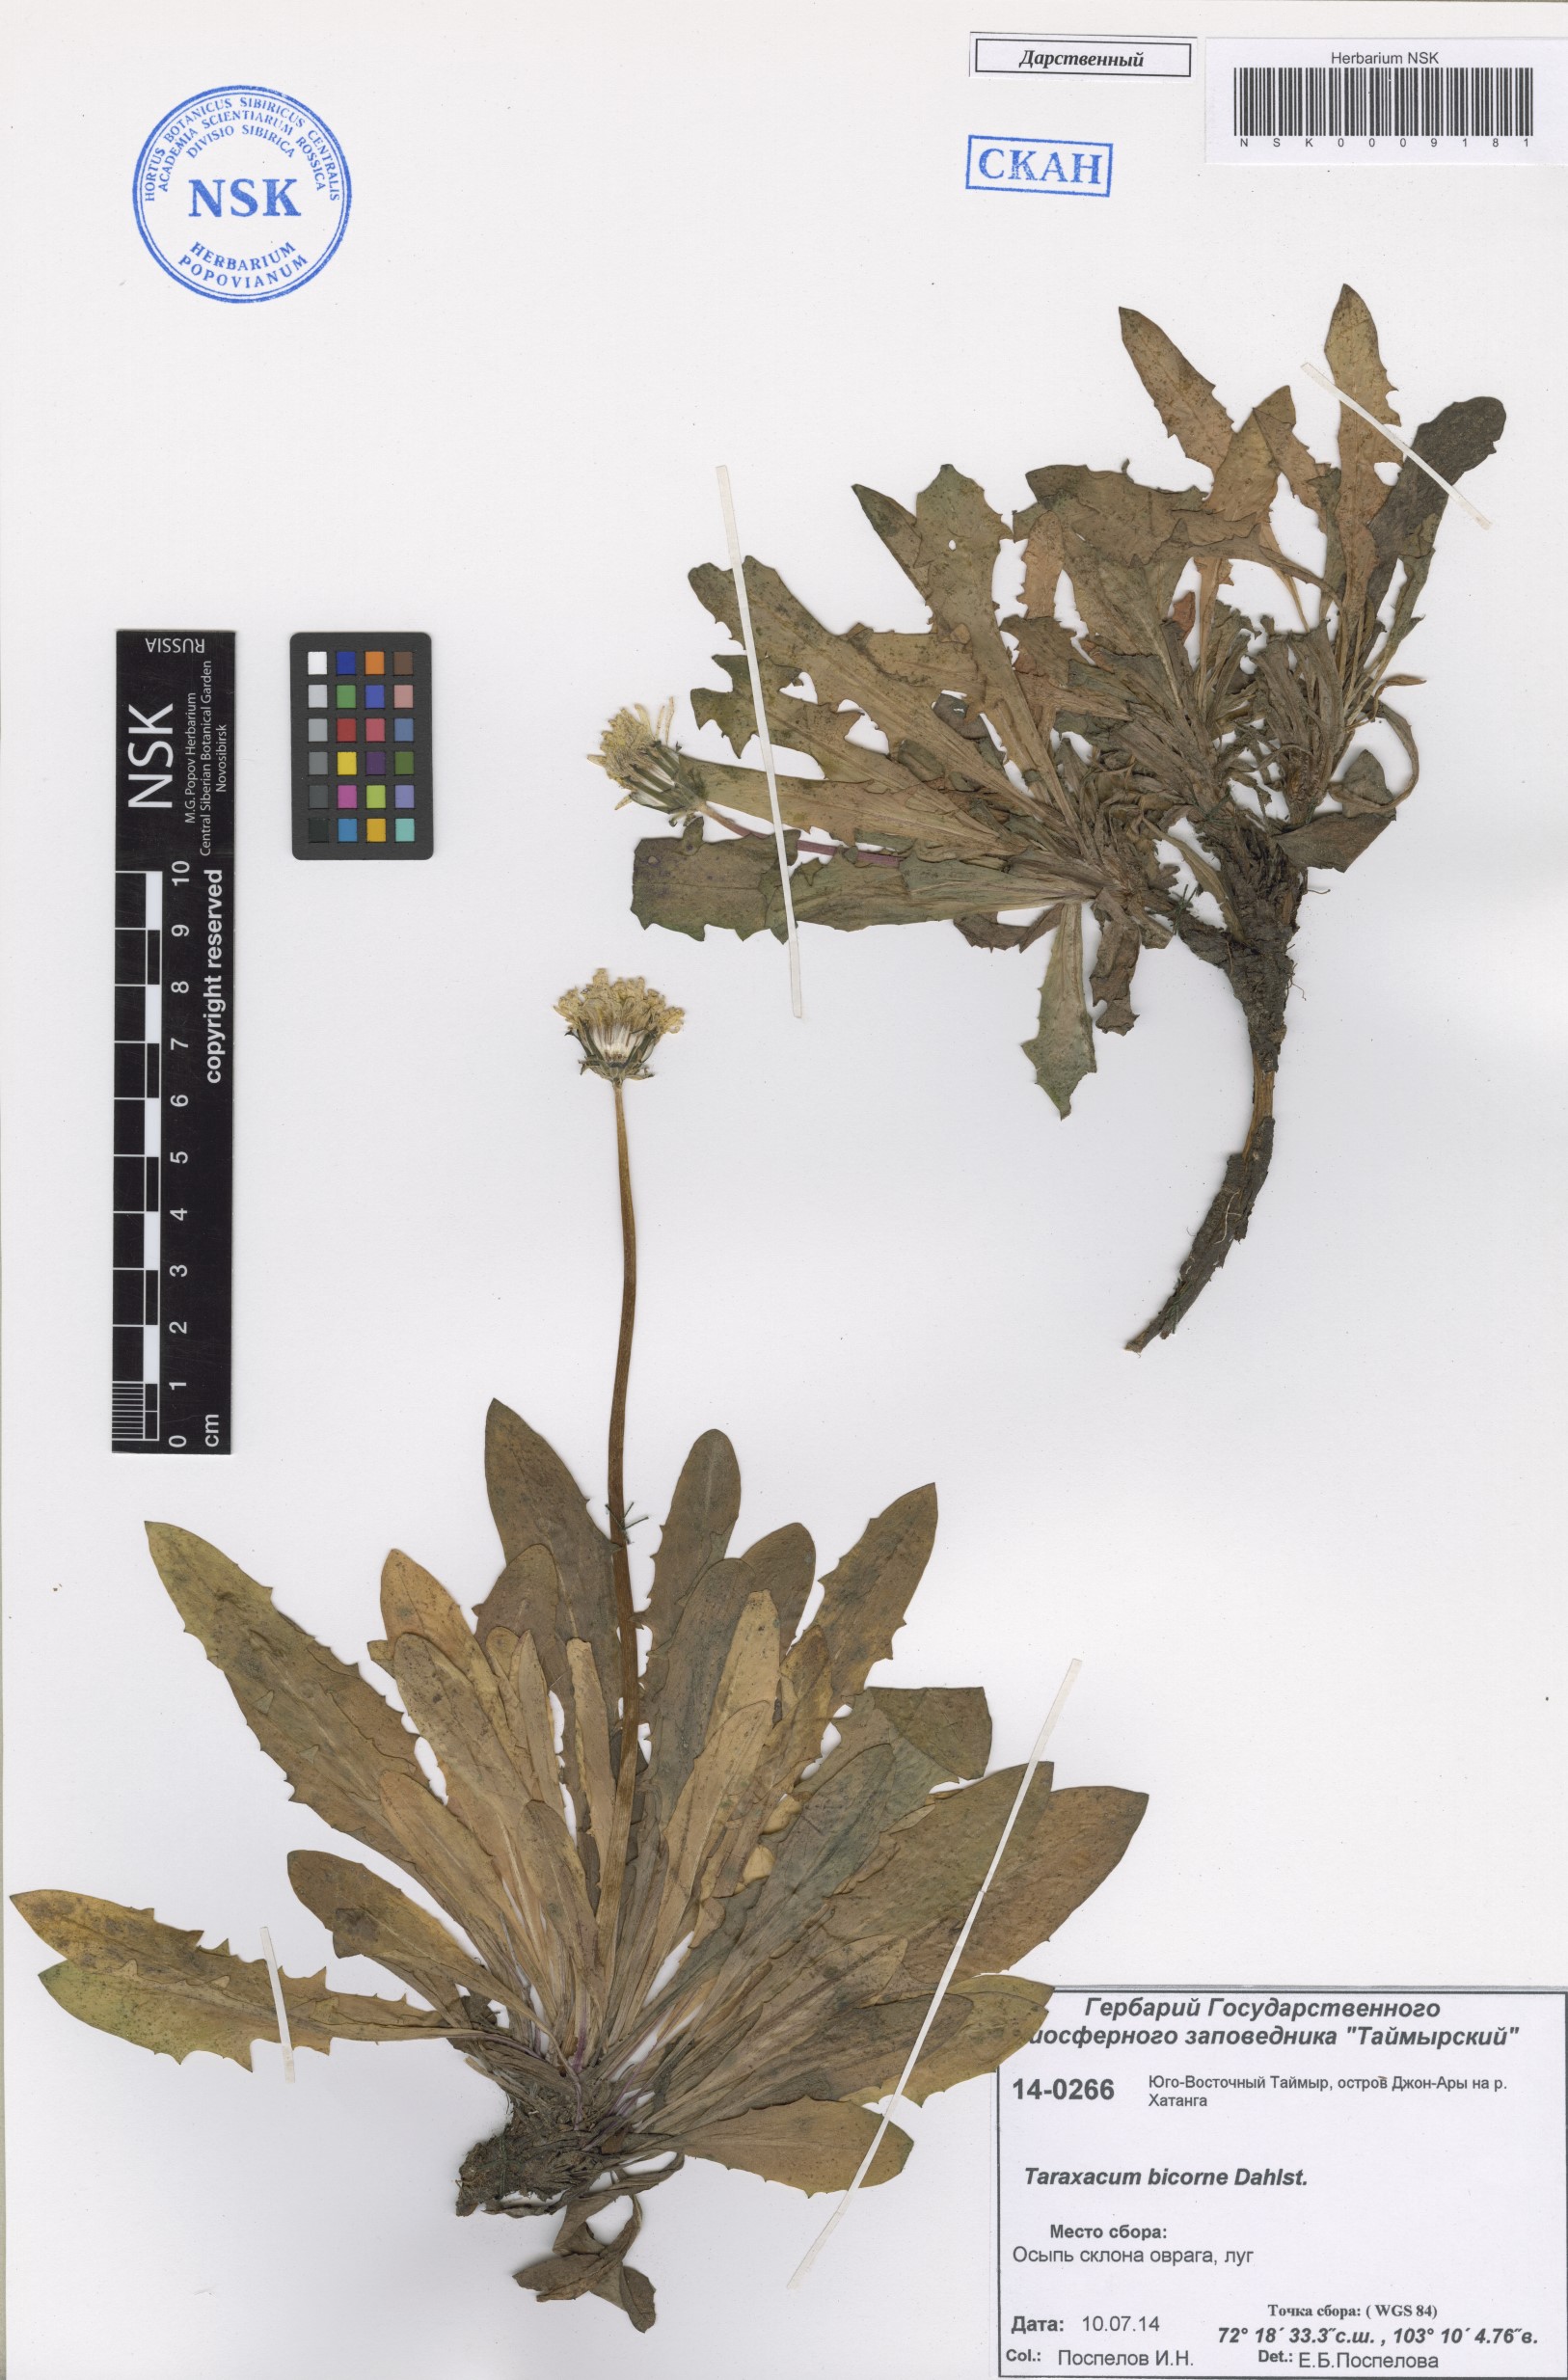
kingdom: Plantae
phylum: Tracheophyta
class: Magnoliopsida
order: Asterales
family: Asteraceae
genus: Taraxacum
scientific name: Taraxacum bicorne
